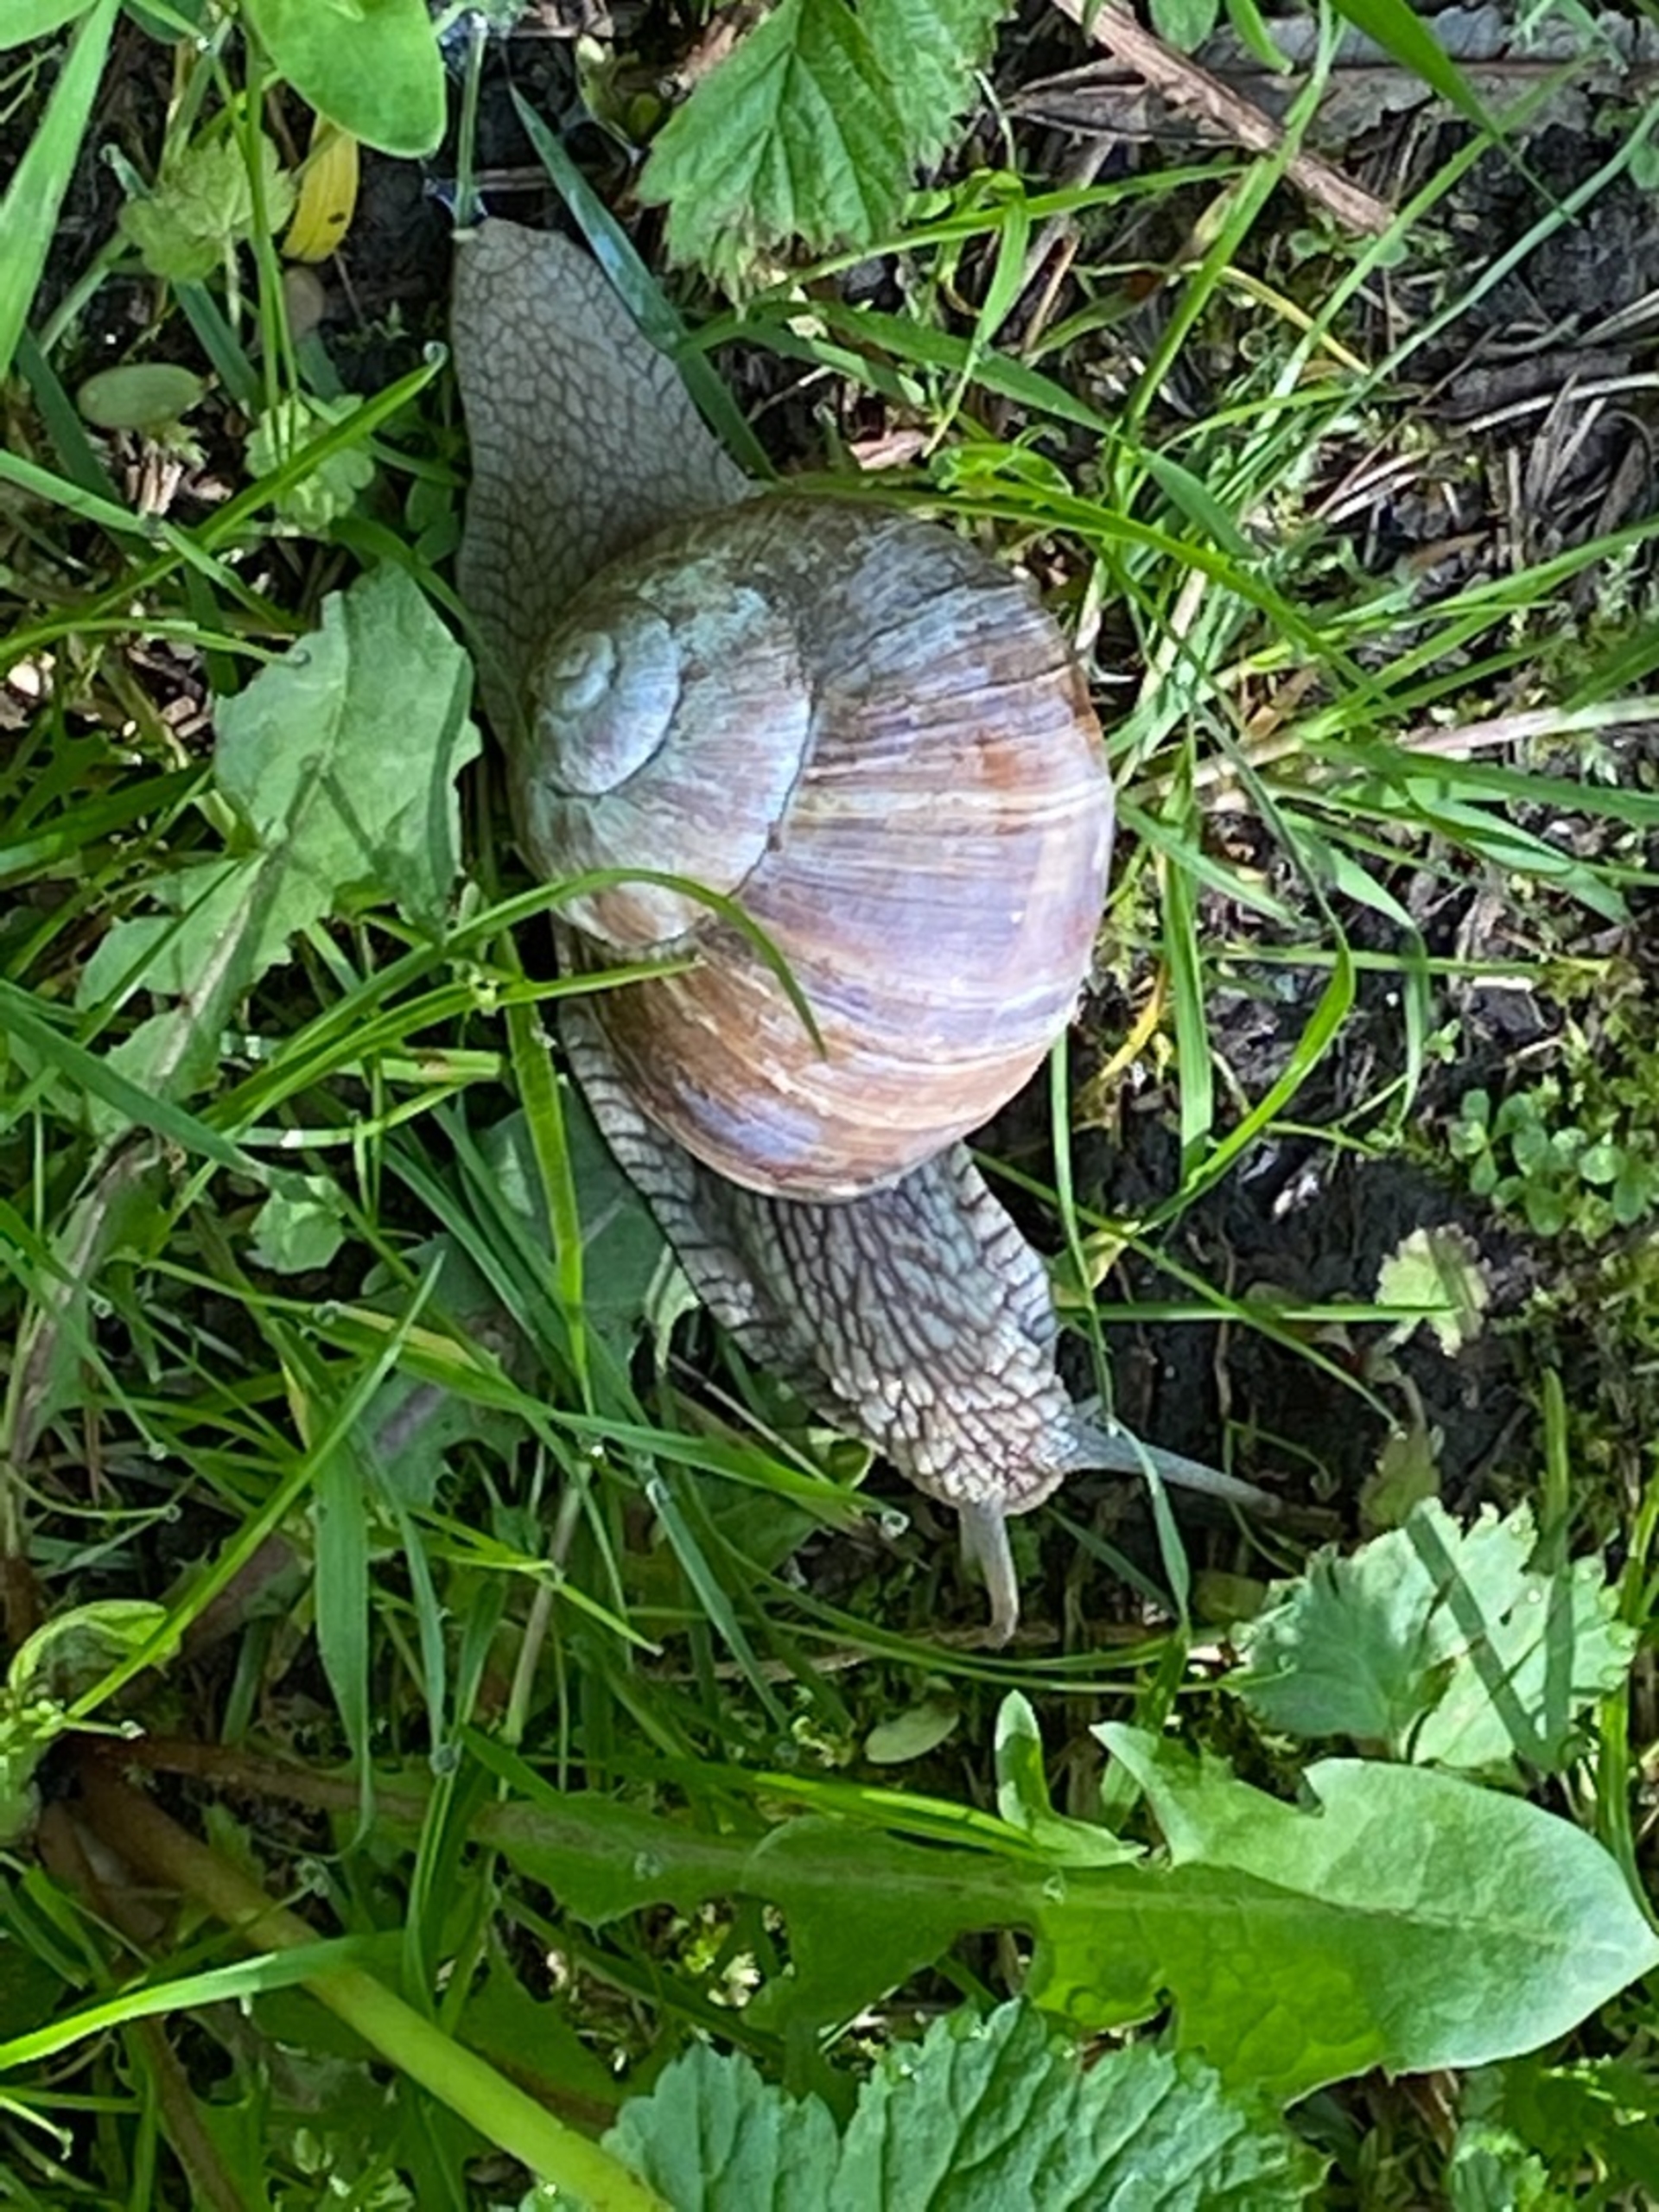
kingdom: Animalia
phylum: Mollusca
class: Gastropoda
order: Stylommatophora
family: Helicidae
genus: Helix
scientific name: Helix pomatia
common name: Vinbjergsnegl
